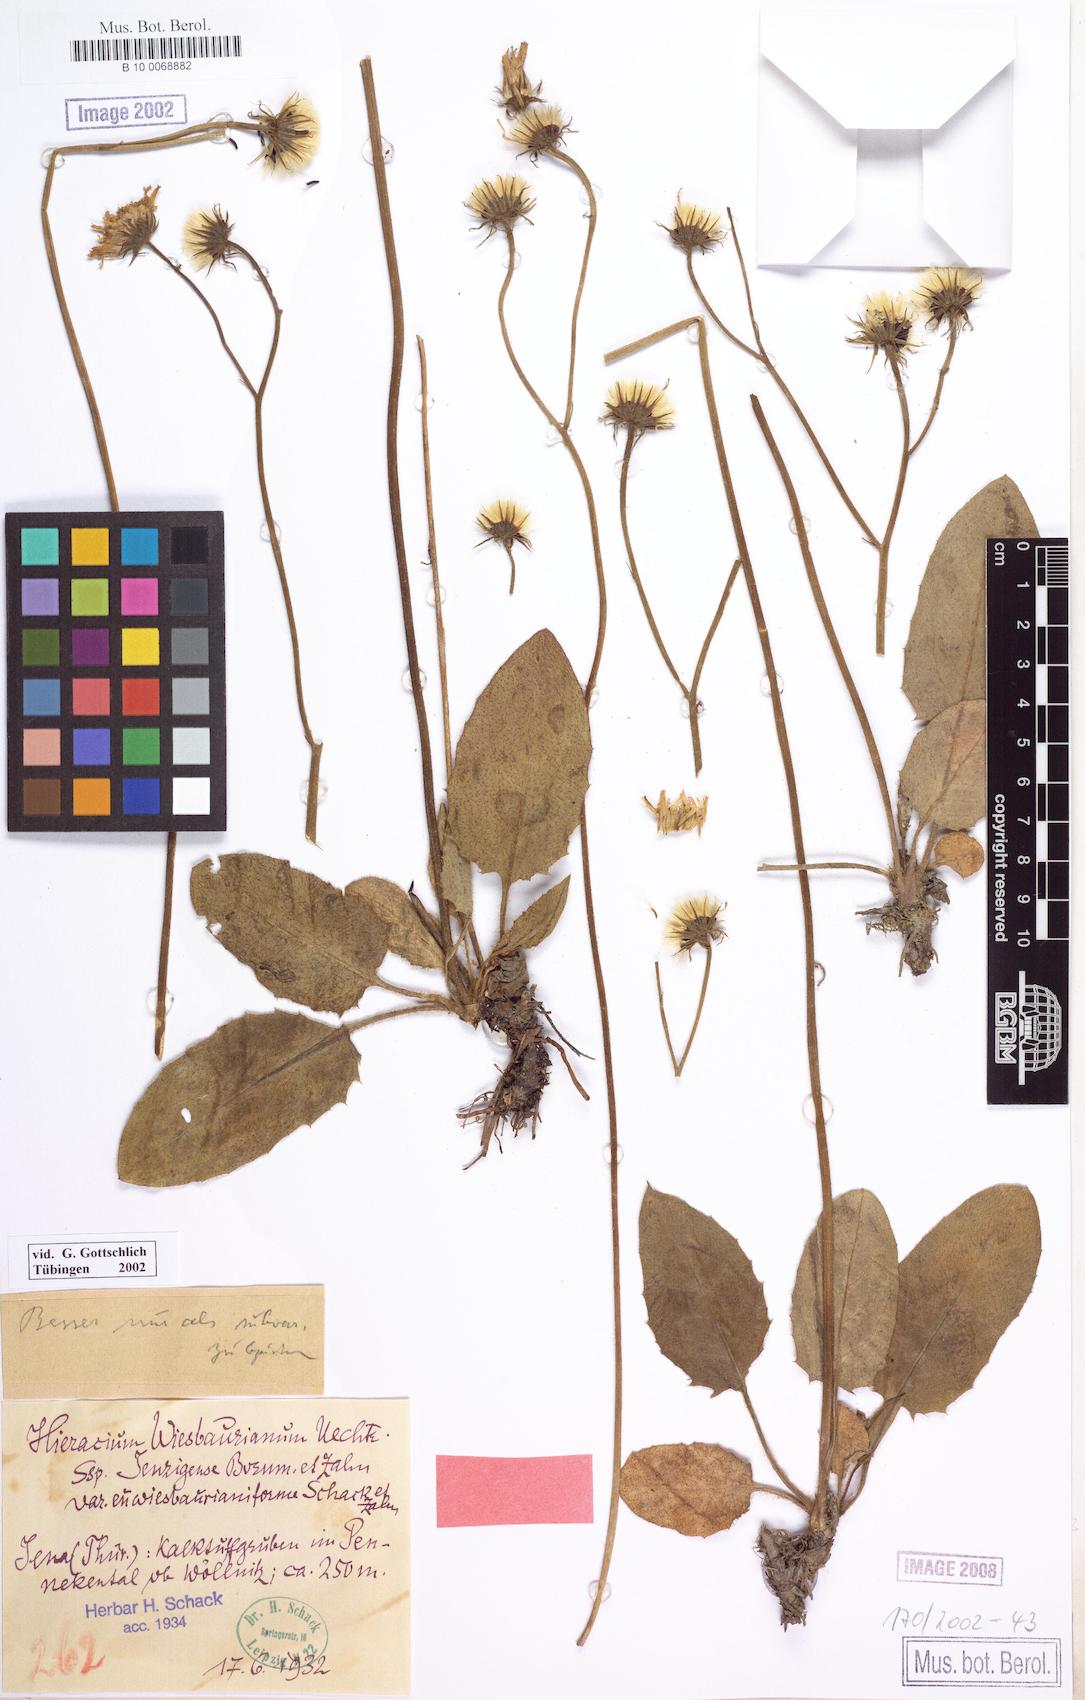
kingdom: Plantae
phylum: Tracheophyta
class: Magnoliopsida
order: Asterales
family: Asteraceae
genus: Hieracium
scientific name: Hieracium hypochoeroides
